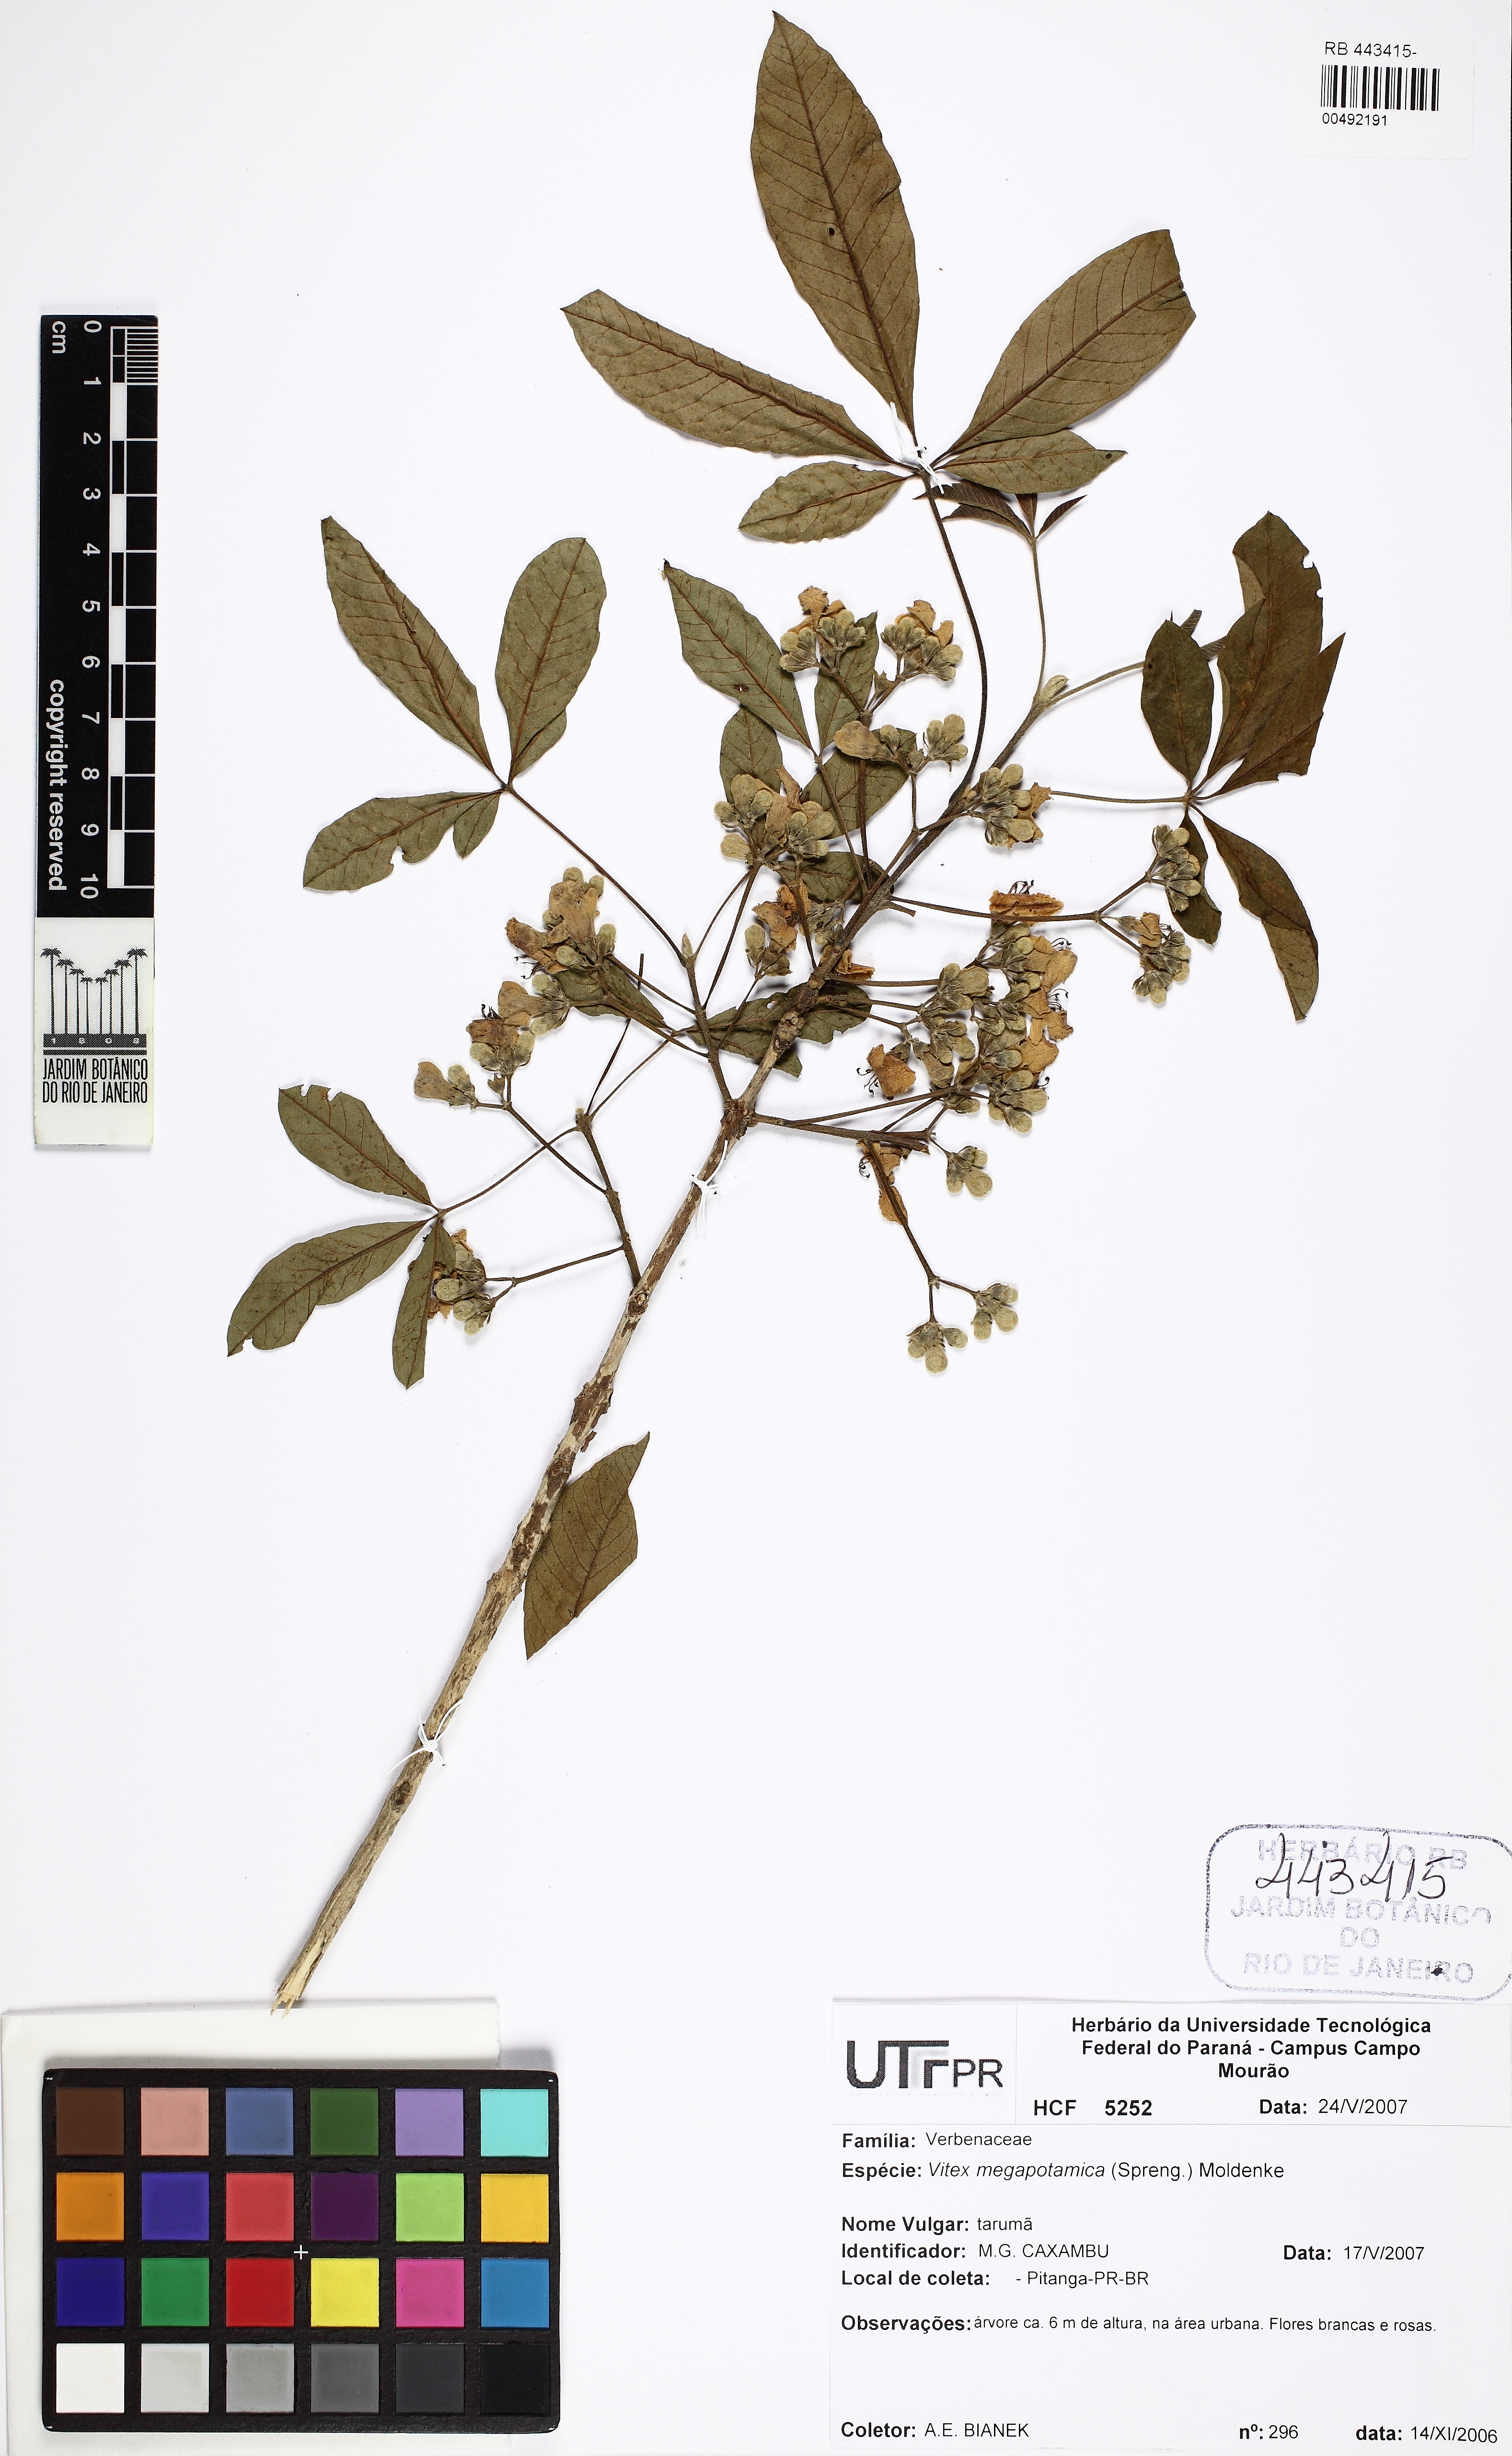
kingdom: Plantae
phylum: Tracheophyta
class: Magnoliopsida
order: Lamiales
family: Lamiaceae
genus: Vitex
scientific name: Vitex megapotamica
